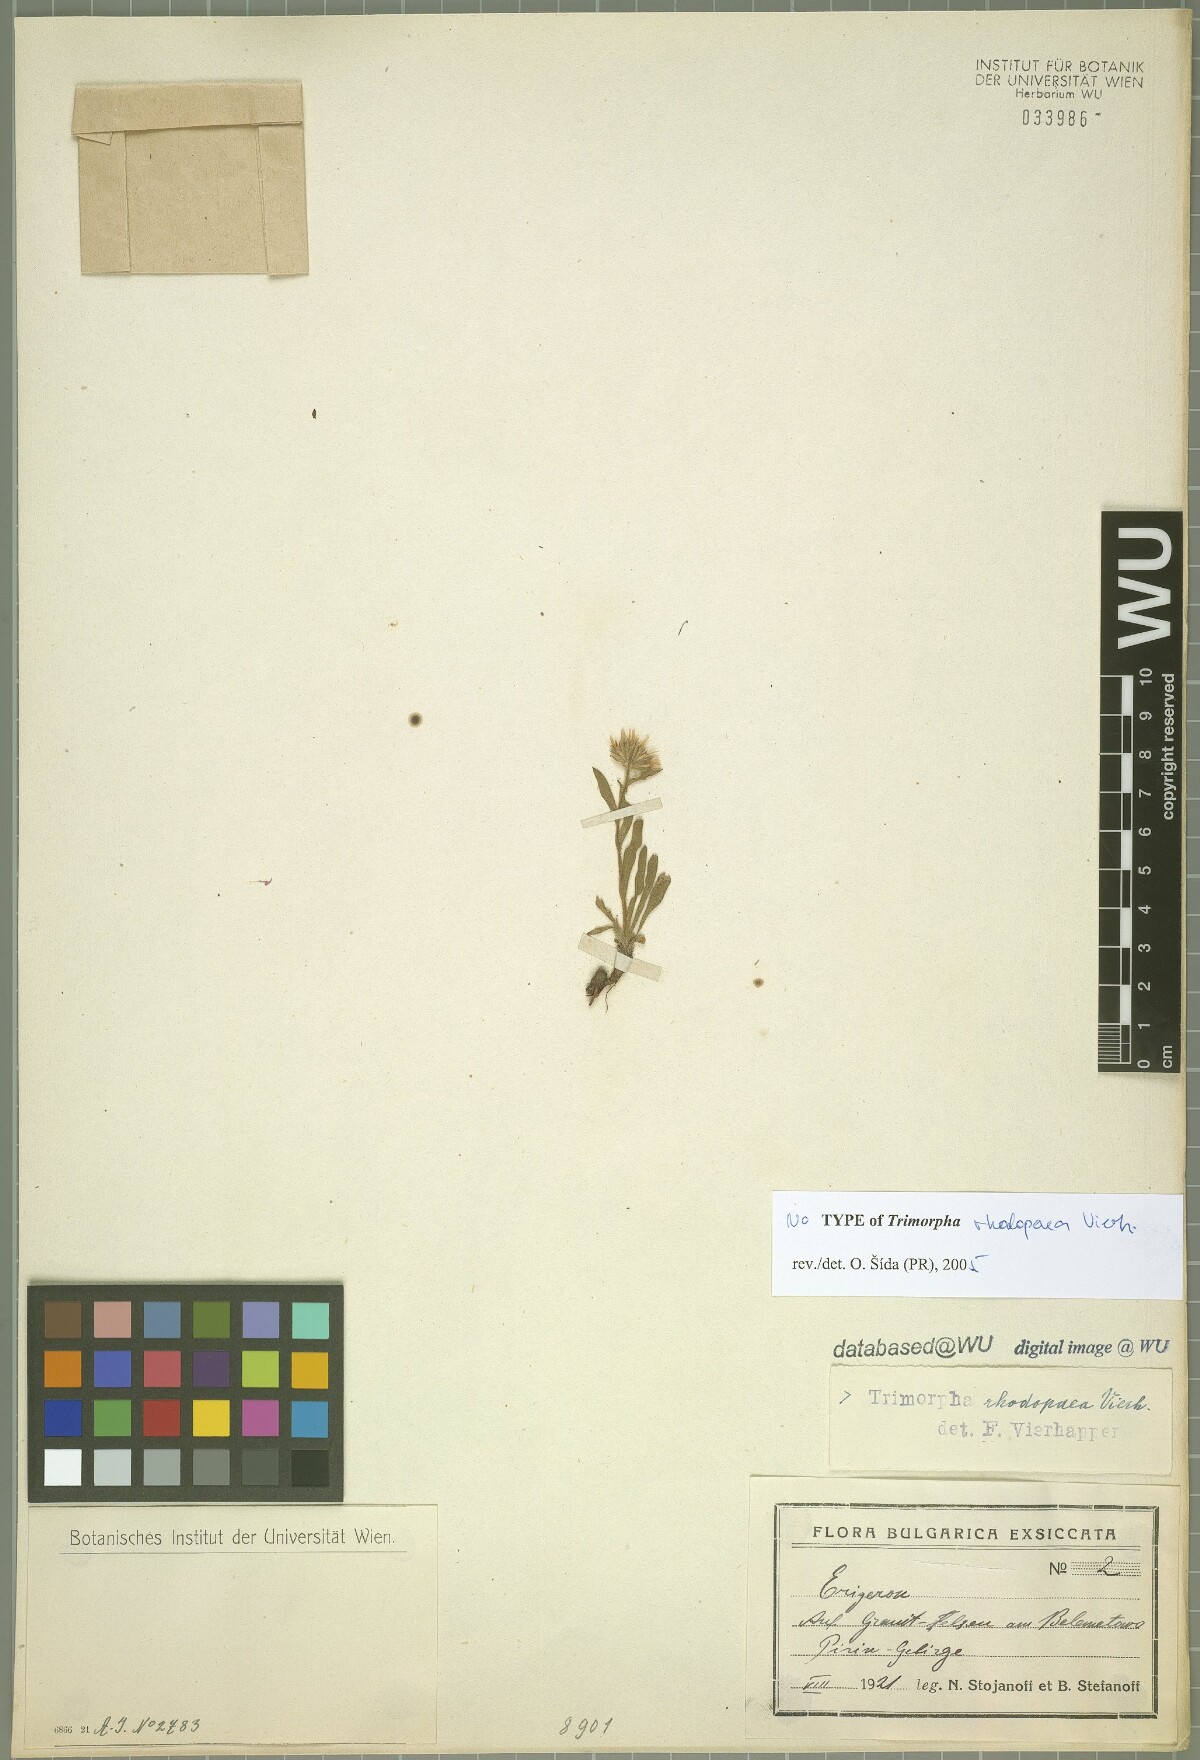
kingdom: Plantae
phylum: Tracheophyta
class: Magnoliopsida
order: Asterales
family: Asteraceae
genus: Erigeron
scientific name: Erigeron alpinus
